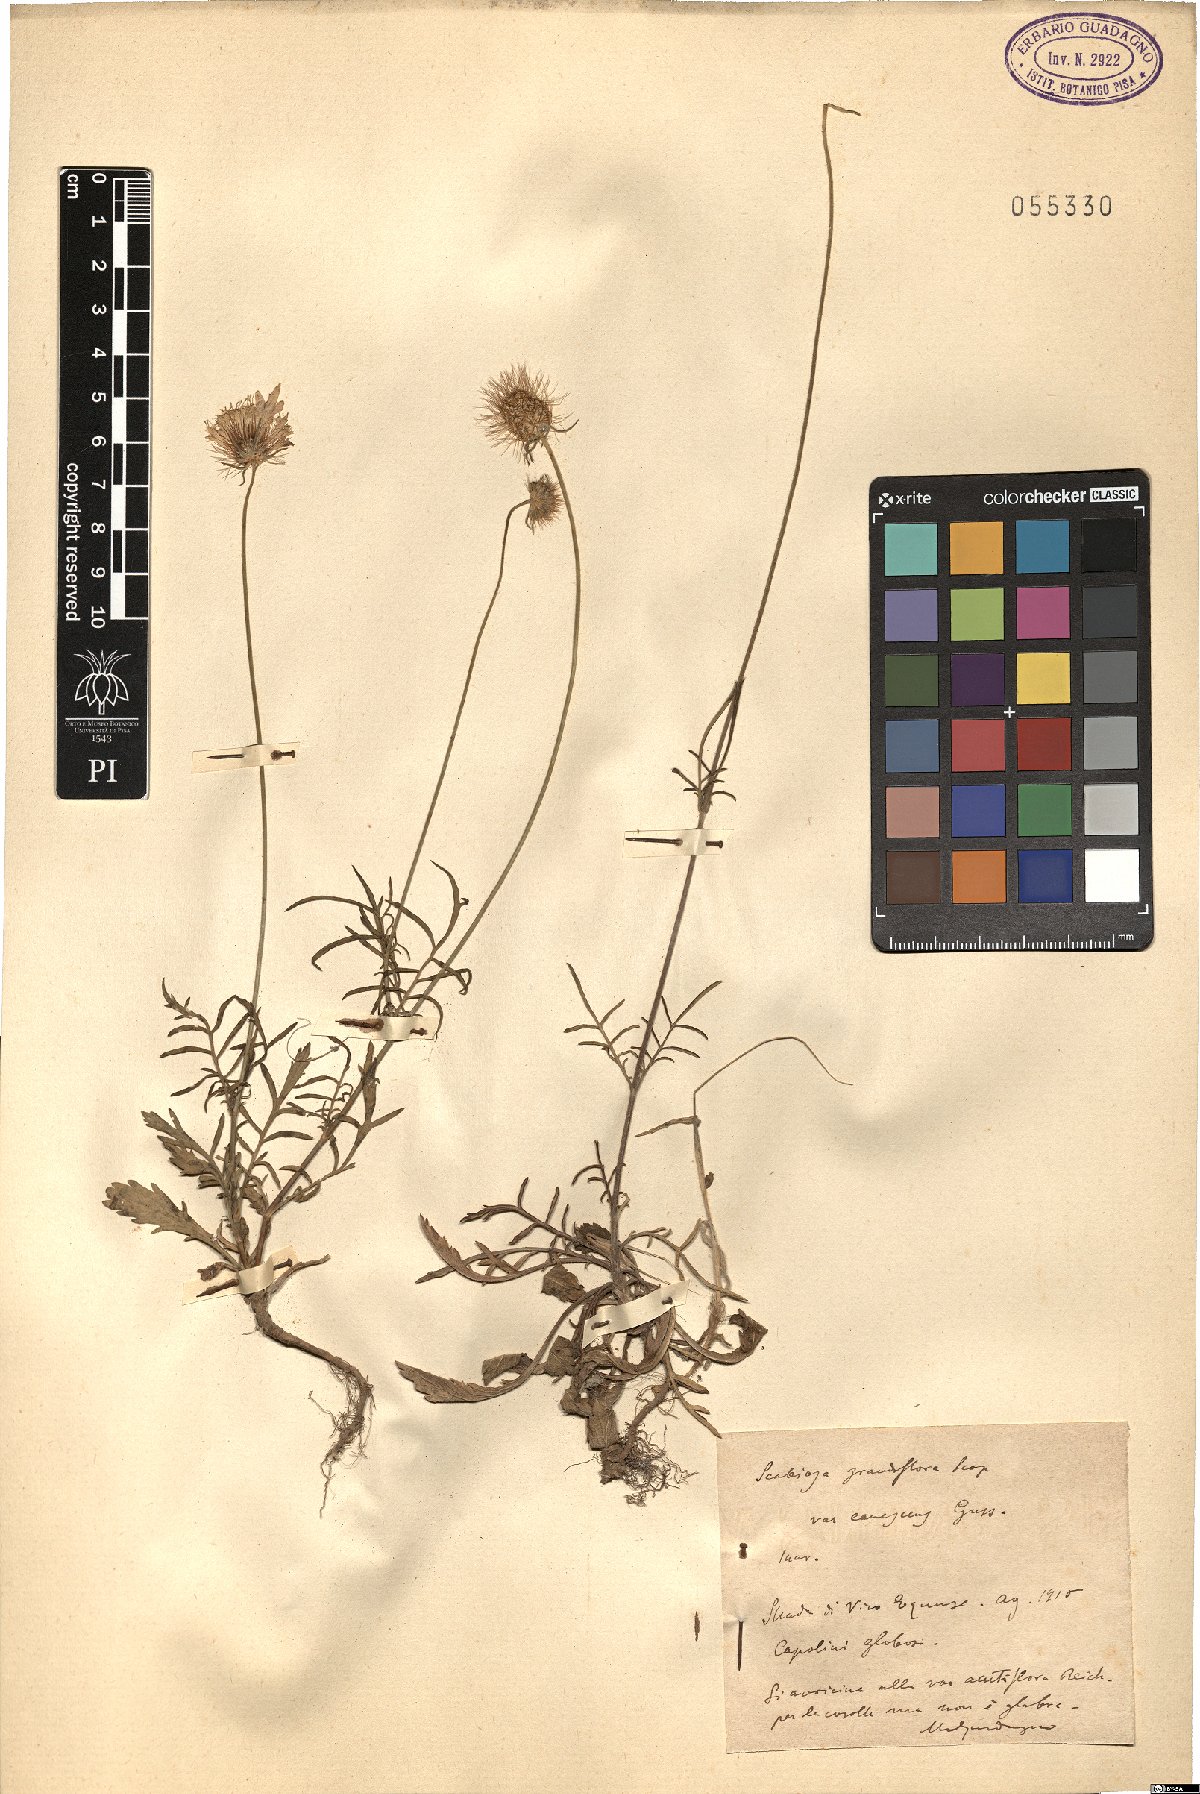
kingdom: Plantae
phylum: Tracheophyta
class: Magnoliopsida
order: Dipsacales
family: Caprifoliaceae
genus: Sixalix
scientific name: Sixalix maritima
